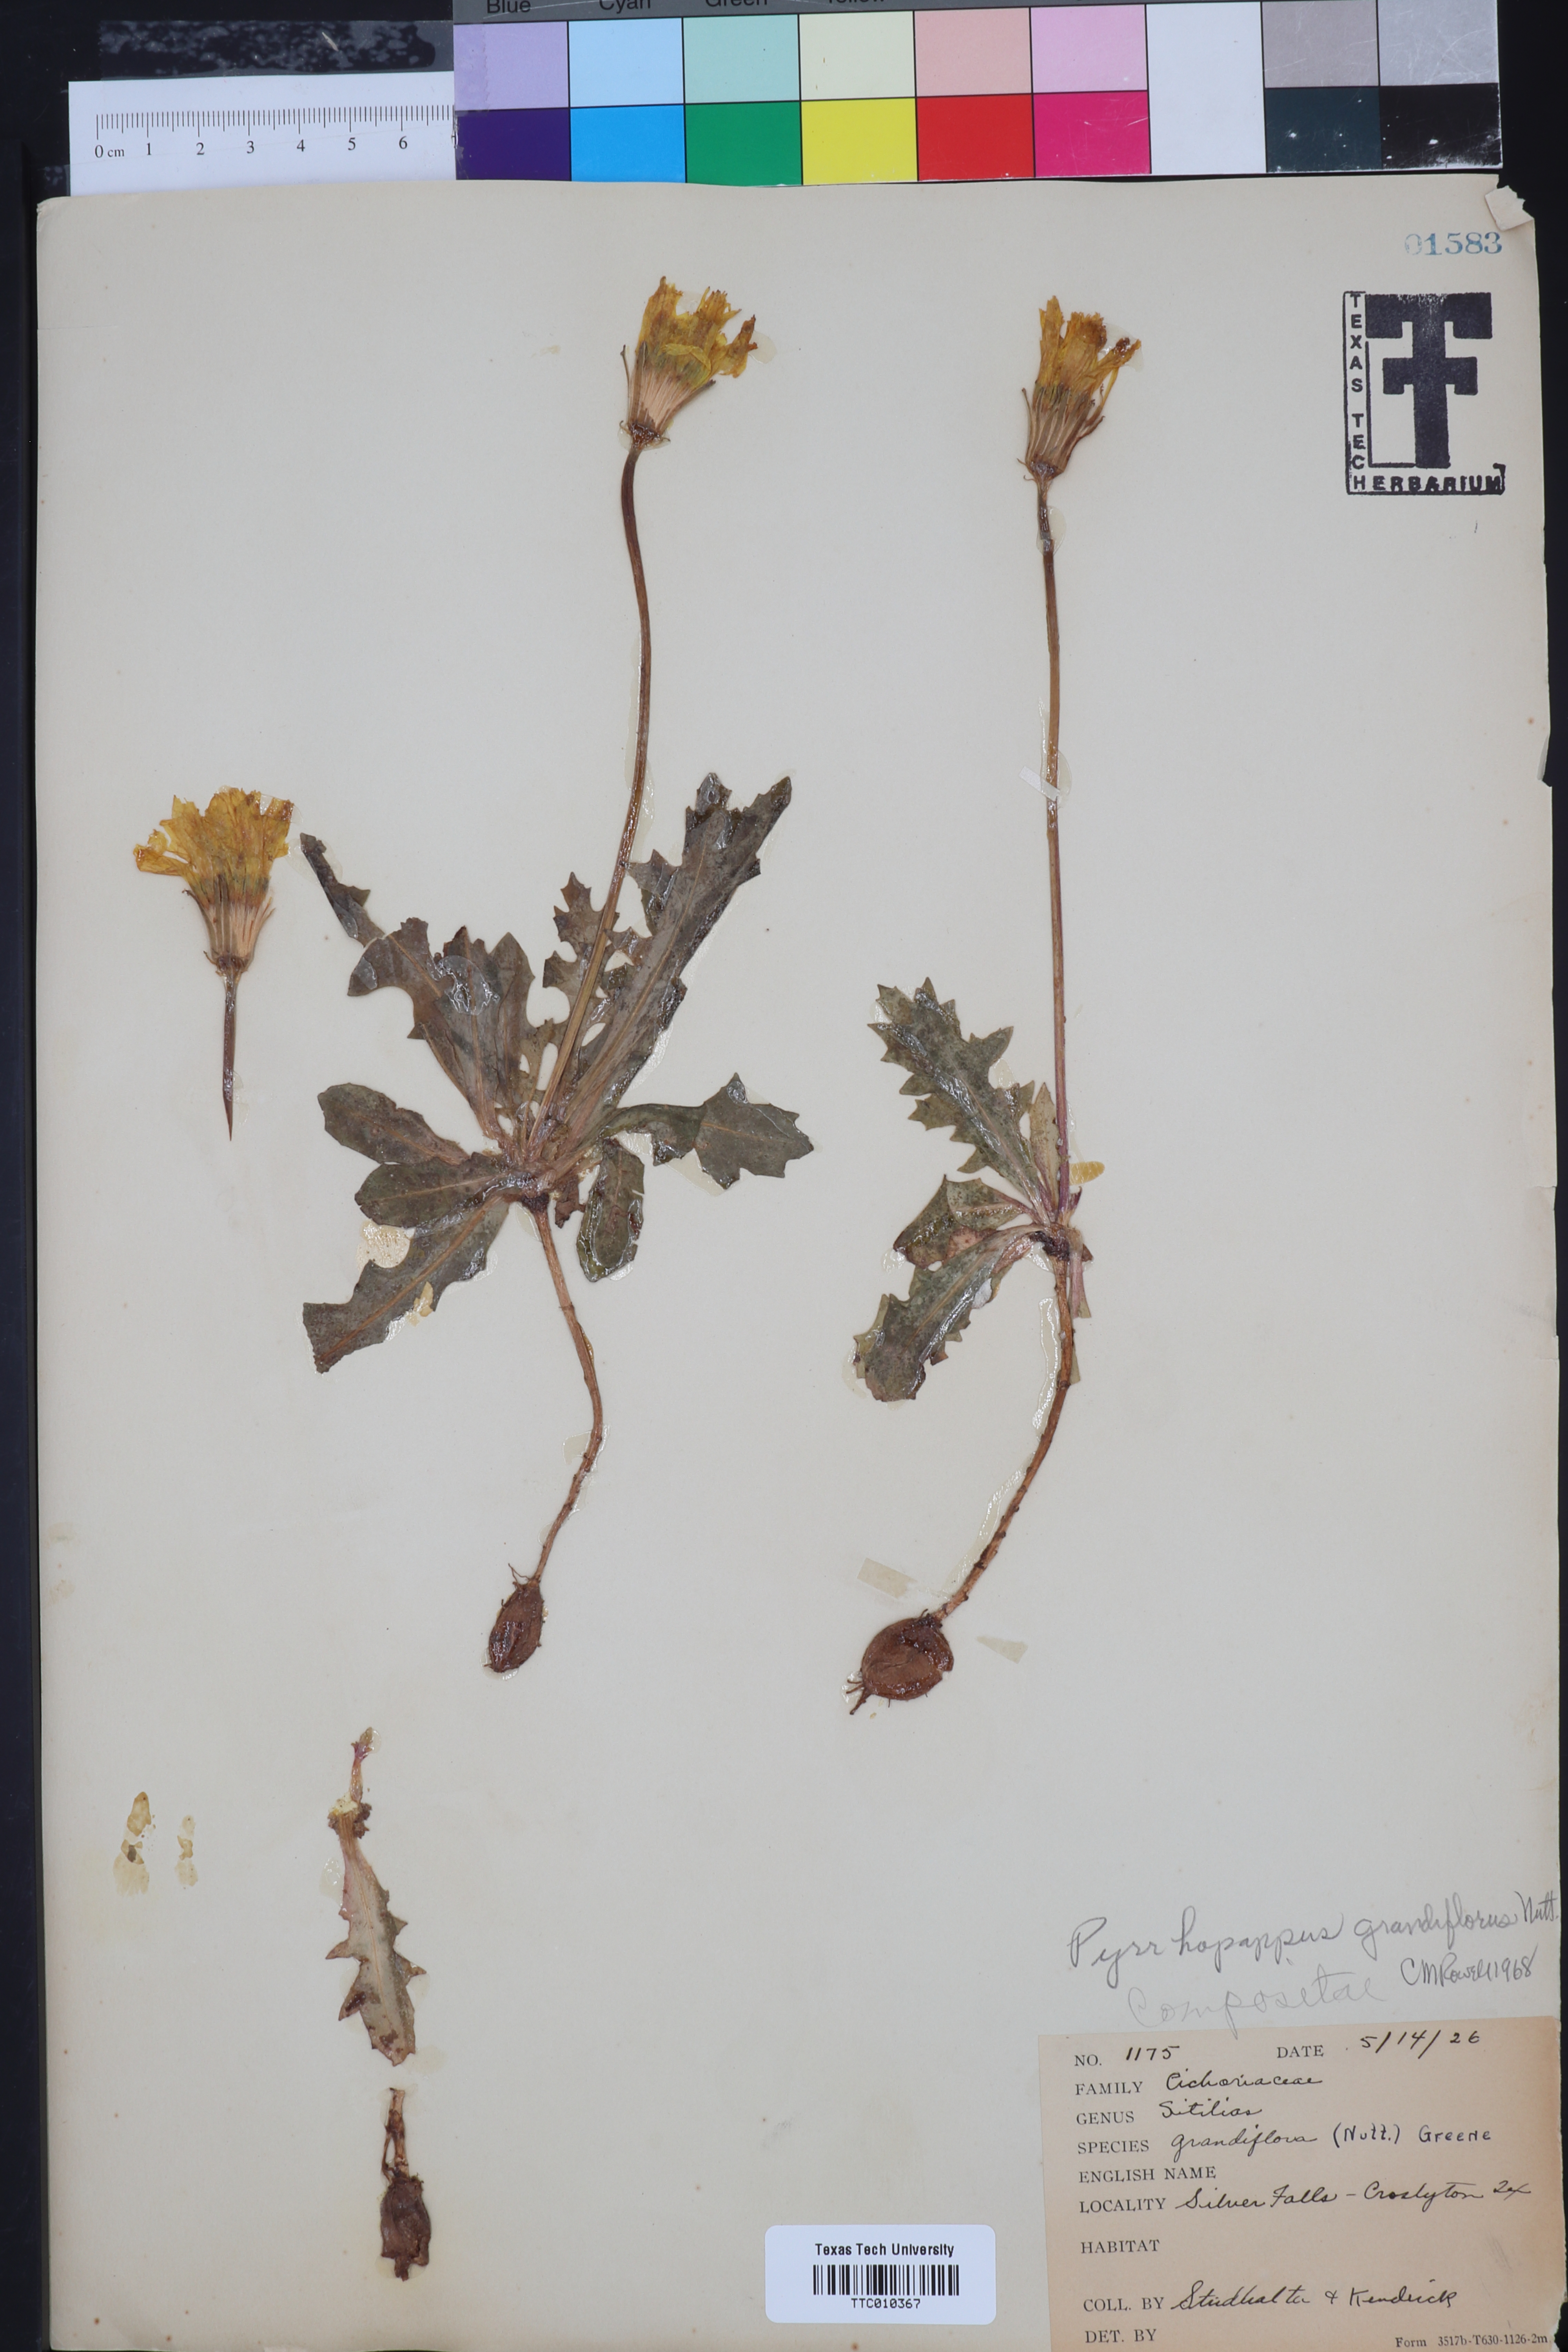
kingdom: Plantae
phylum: Tracheophyta
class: Magnoliopsida
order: Asterales
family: Asteraceae
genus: Pyrrhopappus
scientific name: Pyrrhopappus grandiflorus
